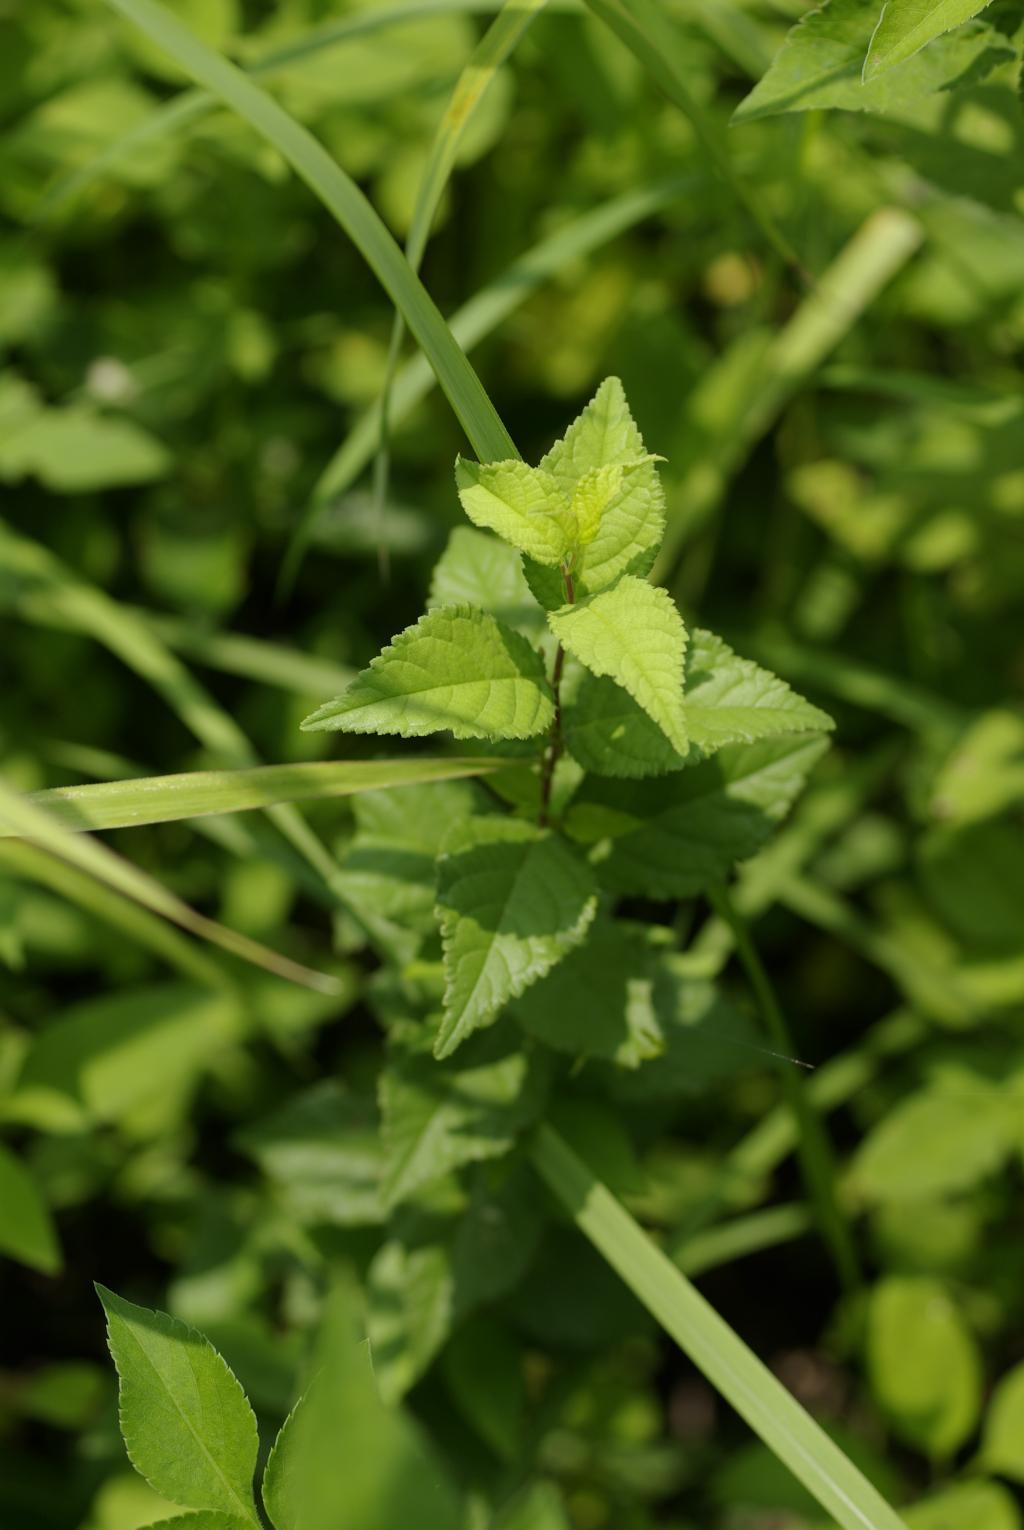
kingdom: Plantae
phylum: Tracheophyta
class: Magnoliopsida
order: Rosales
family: Rosaceae
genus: Prunus
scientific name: Prunus japonica
